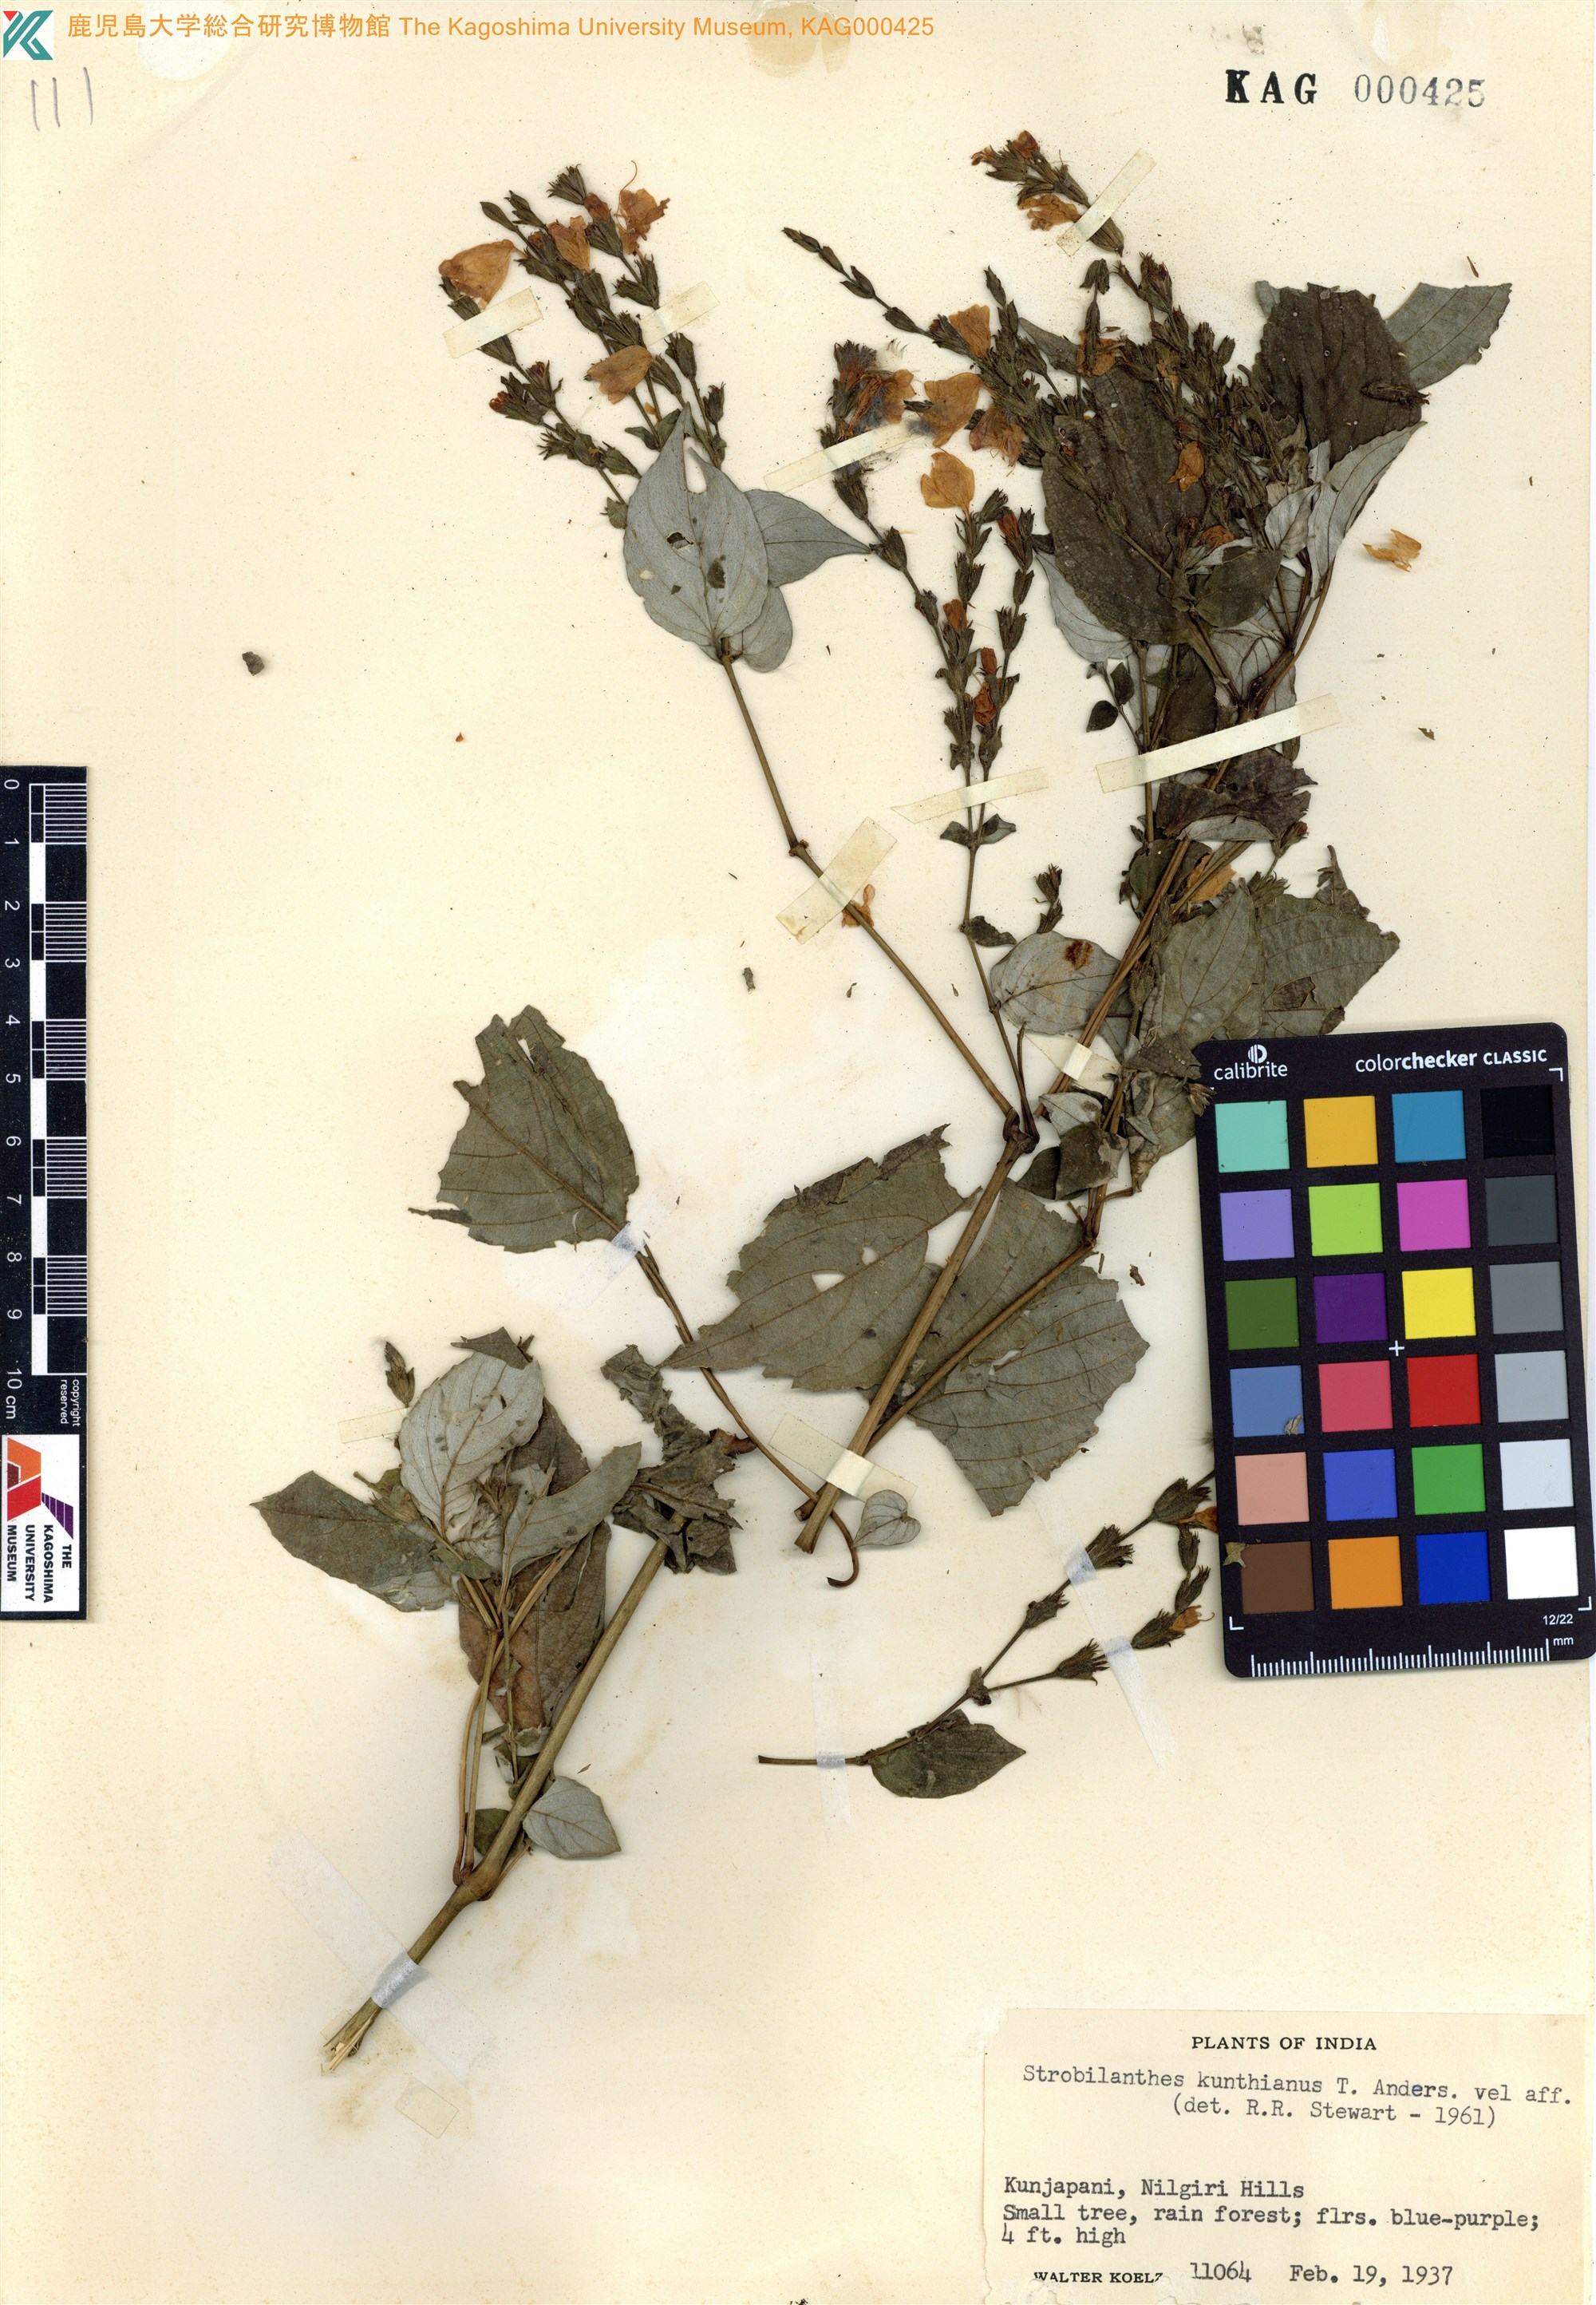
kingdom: Plantae
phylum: Tracheophyta
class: Magnoliopsida
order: Lamiales
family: Acanthaceae
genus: Strobilanthes
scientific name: Strobilanthes kunthiana
